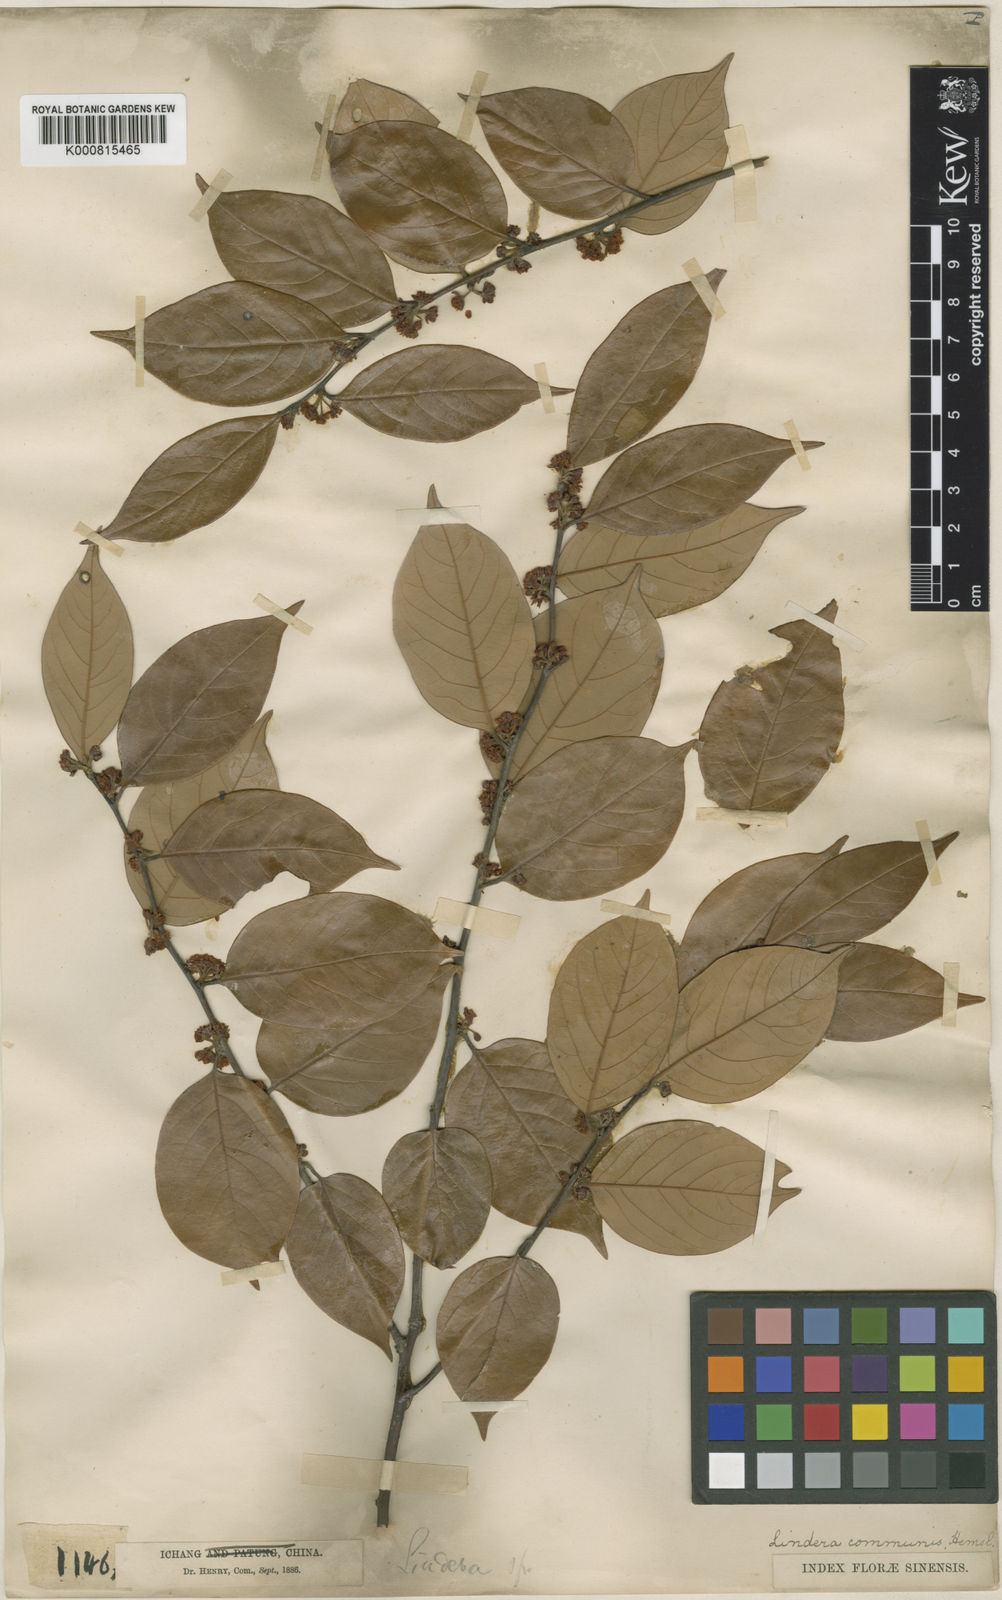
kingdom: Plantae
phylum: Tracheophyta
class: Magnoliopsida
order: Laurales
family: Lauraceae
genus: Lindera
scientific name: Lindera communis
